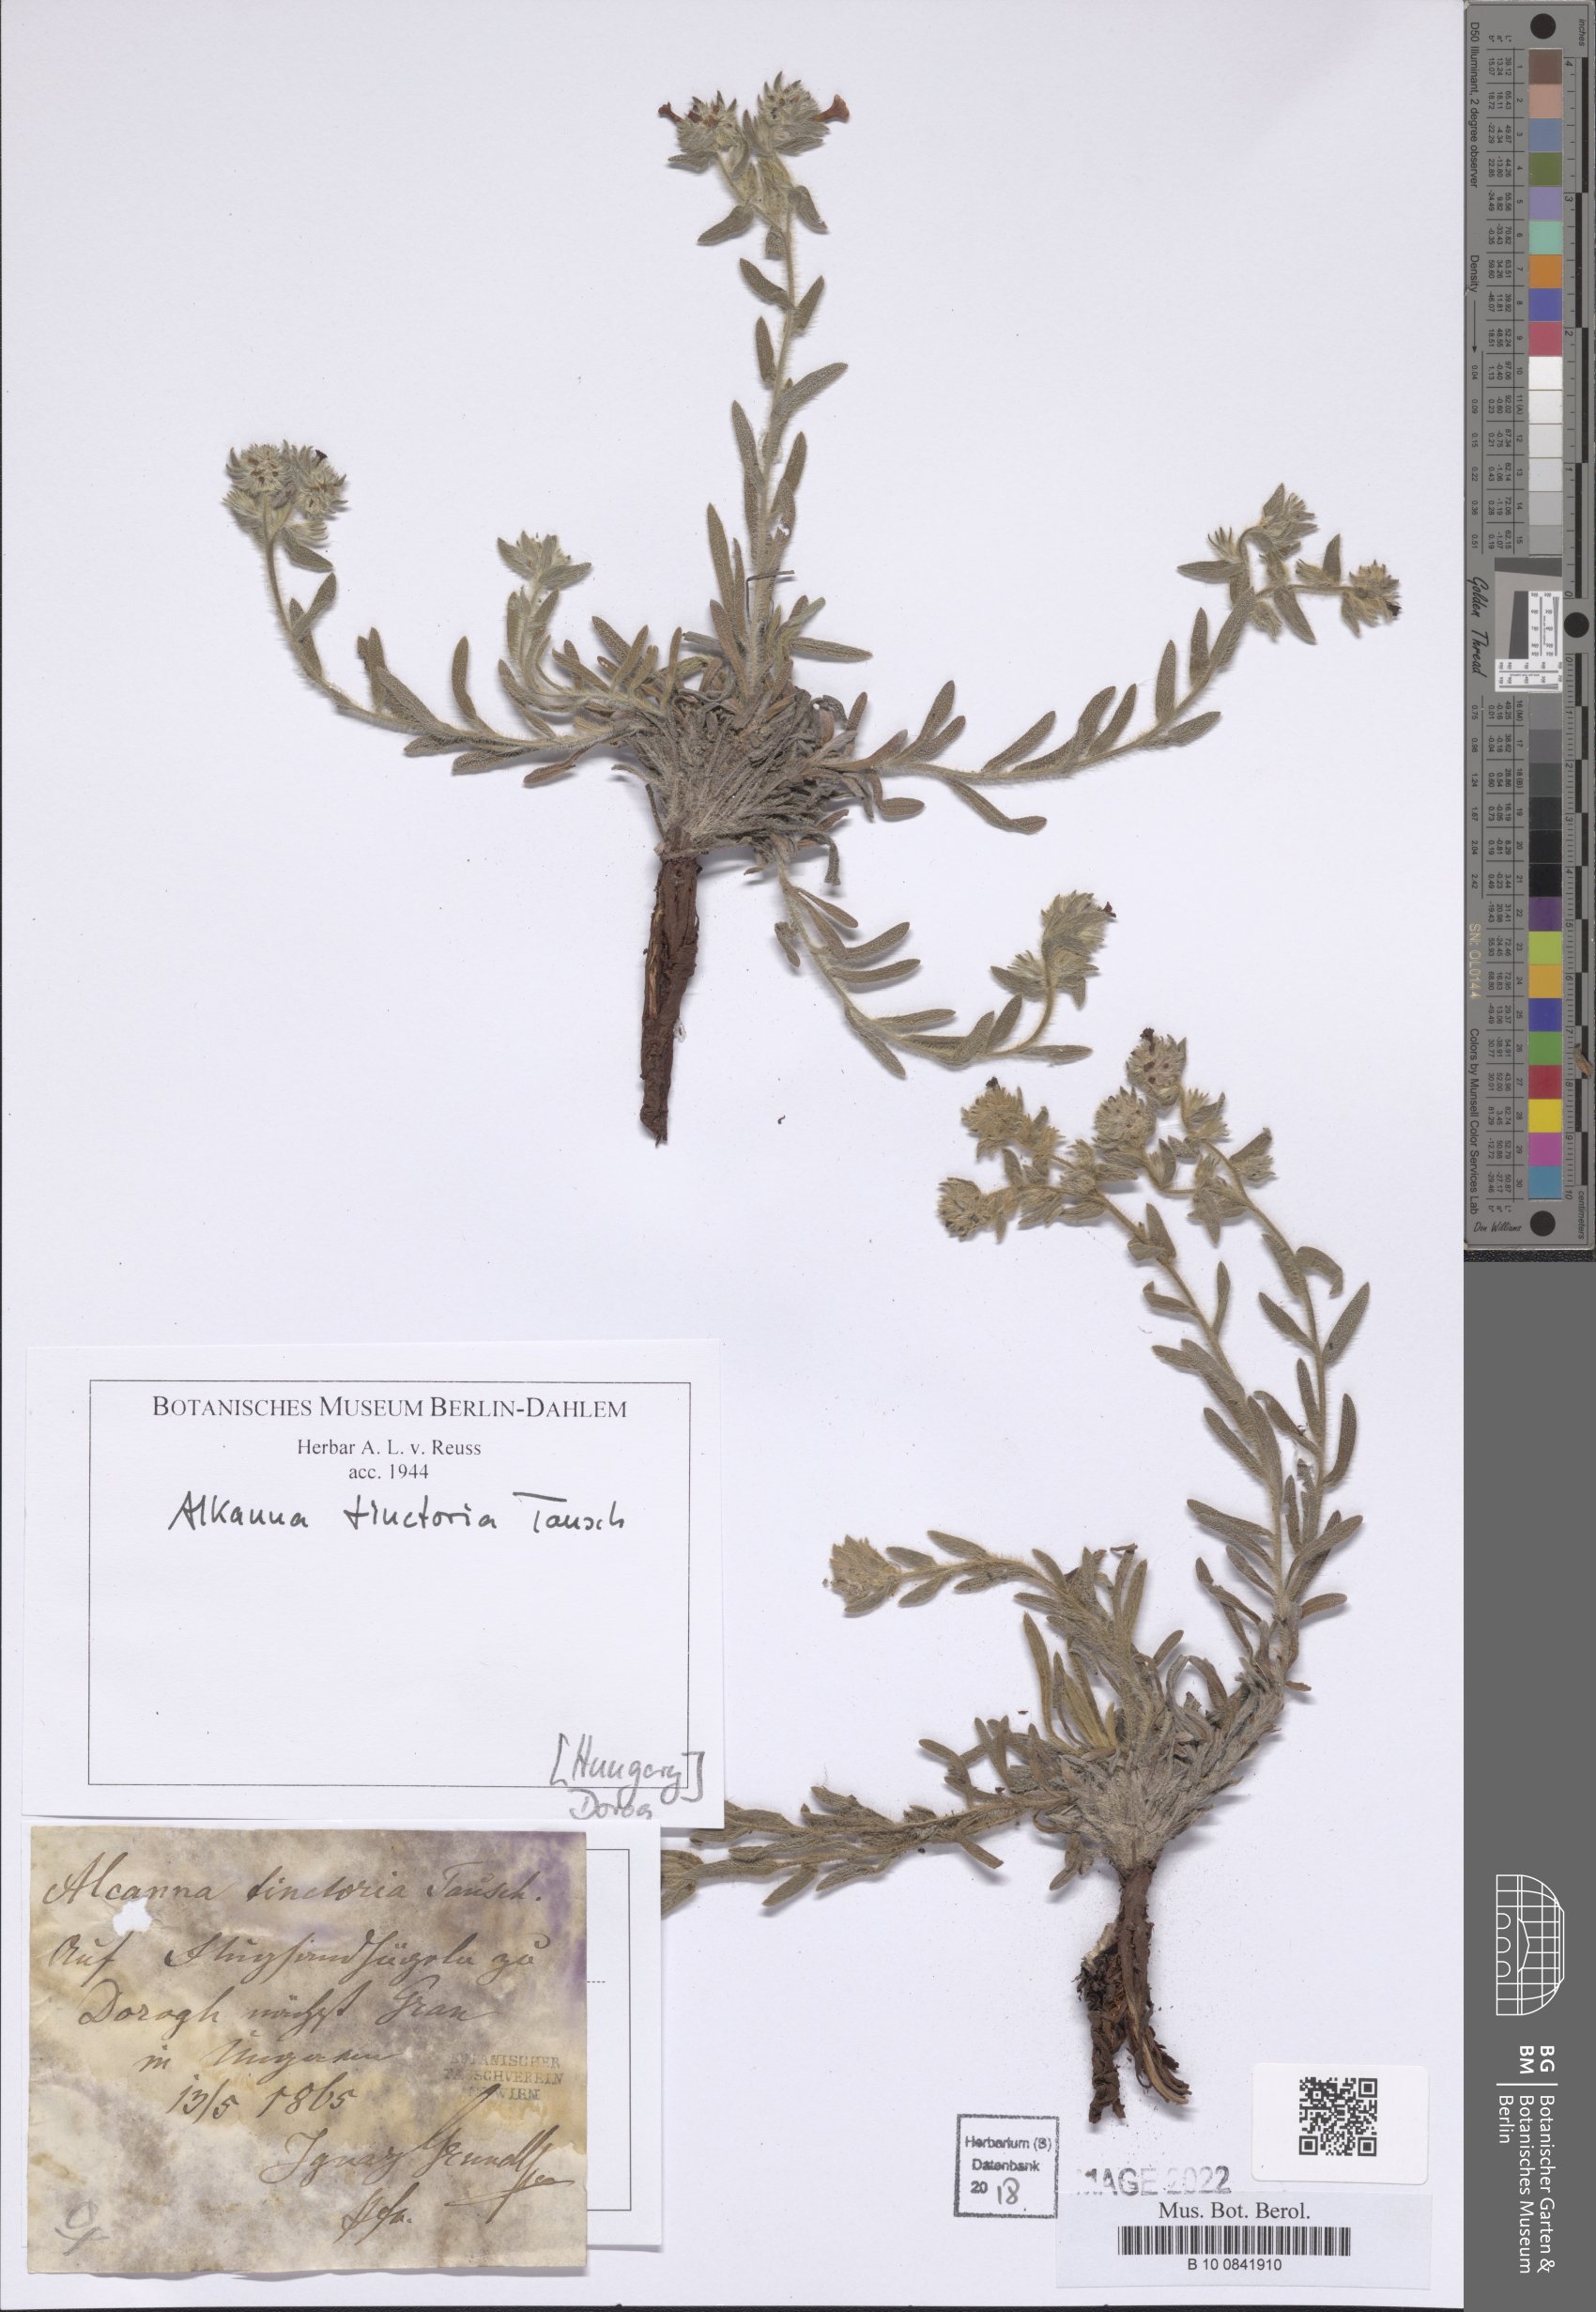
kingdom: Plantae
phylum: Tracheophyta
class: Magnoliopsida
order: Boraginales
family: Boraginaceae
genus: Alkanna
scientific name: Alkanna tinctoria
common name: Dyer's-alkanet
